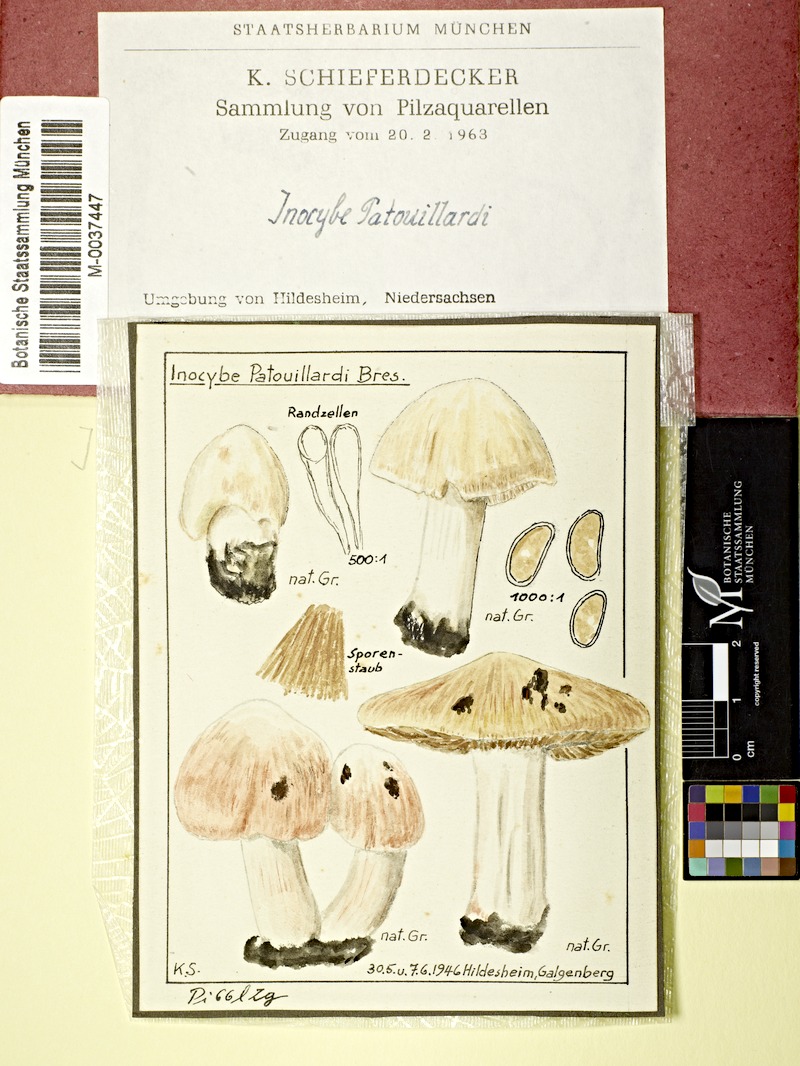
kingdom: Fungi
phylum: Basidiomycota
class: Agaricomycetes
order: Agaricales
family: Inocybaceae
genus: Inosperma
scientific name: Inosperma erubescens
